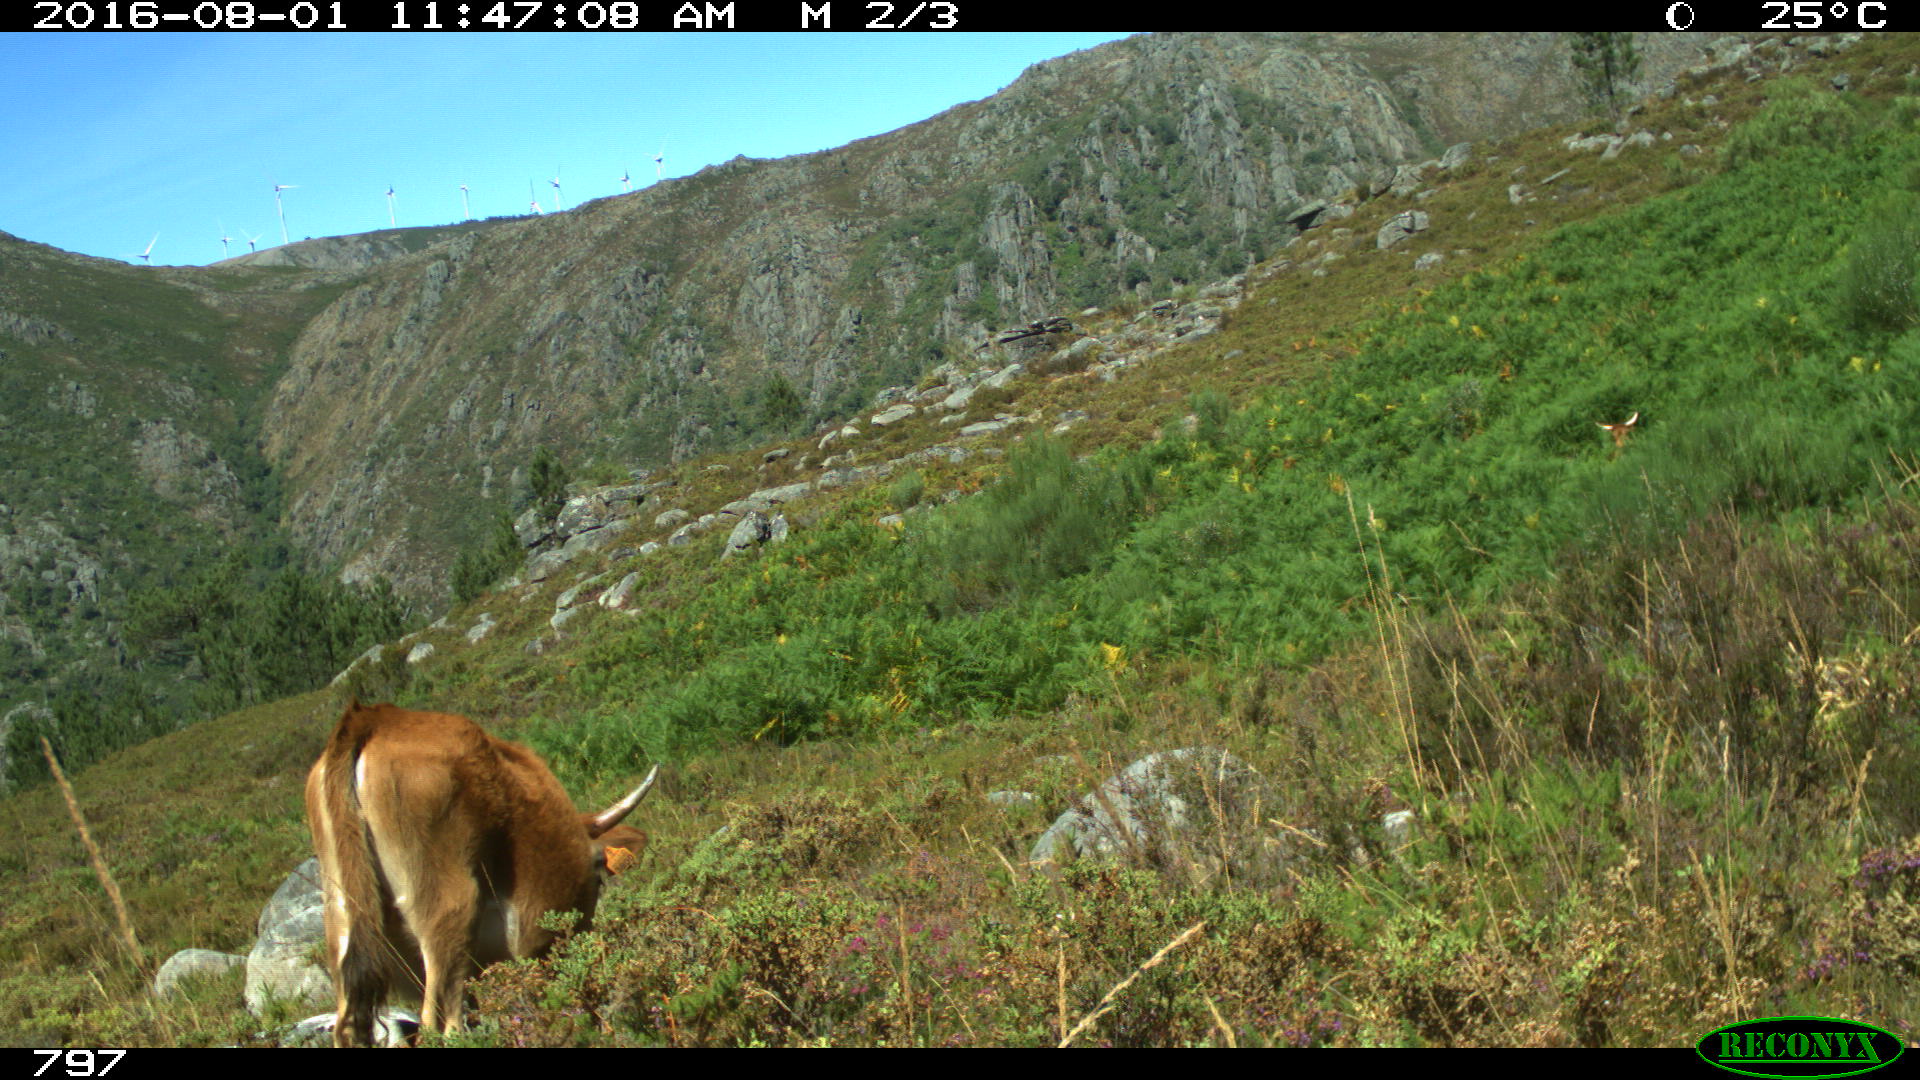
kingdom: Animalia
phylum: Chordata
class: Mammalia
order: Artiodactyla
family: Bovidae
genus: Bos
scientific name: Bos taurus
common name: Domesticated cattle
